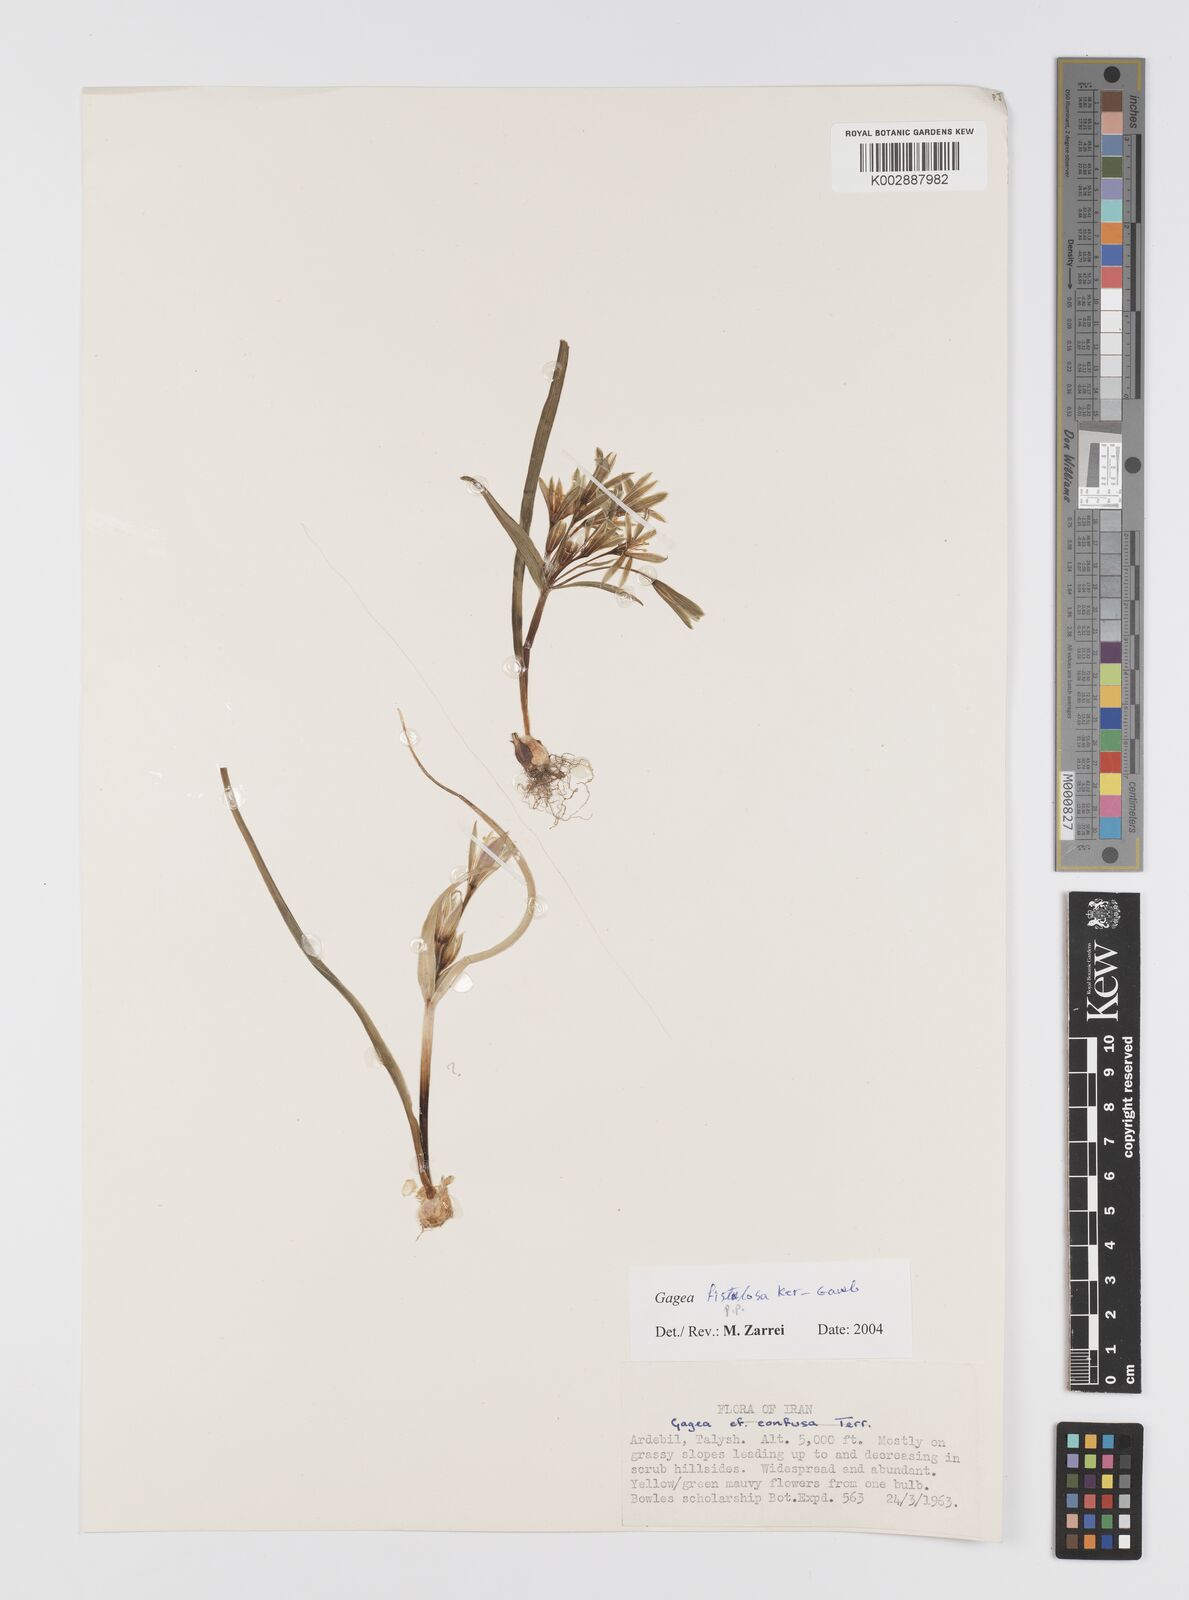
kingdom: Plantae
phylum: Tracheophyta
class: Liliopsida
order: Liliales
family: Liliaceae
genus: Gagea
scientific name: Gagea bohemica
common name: Early star-of-bethlehem
